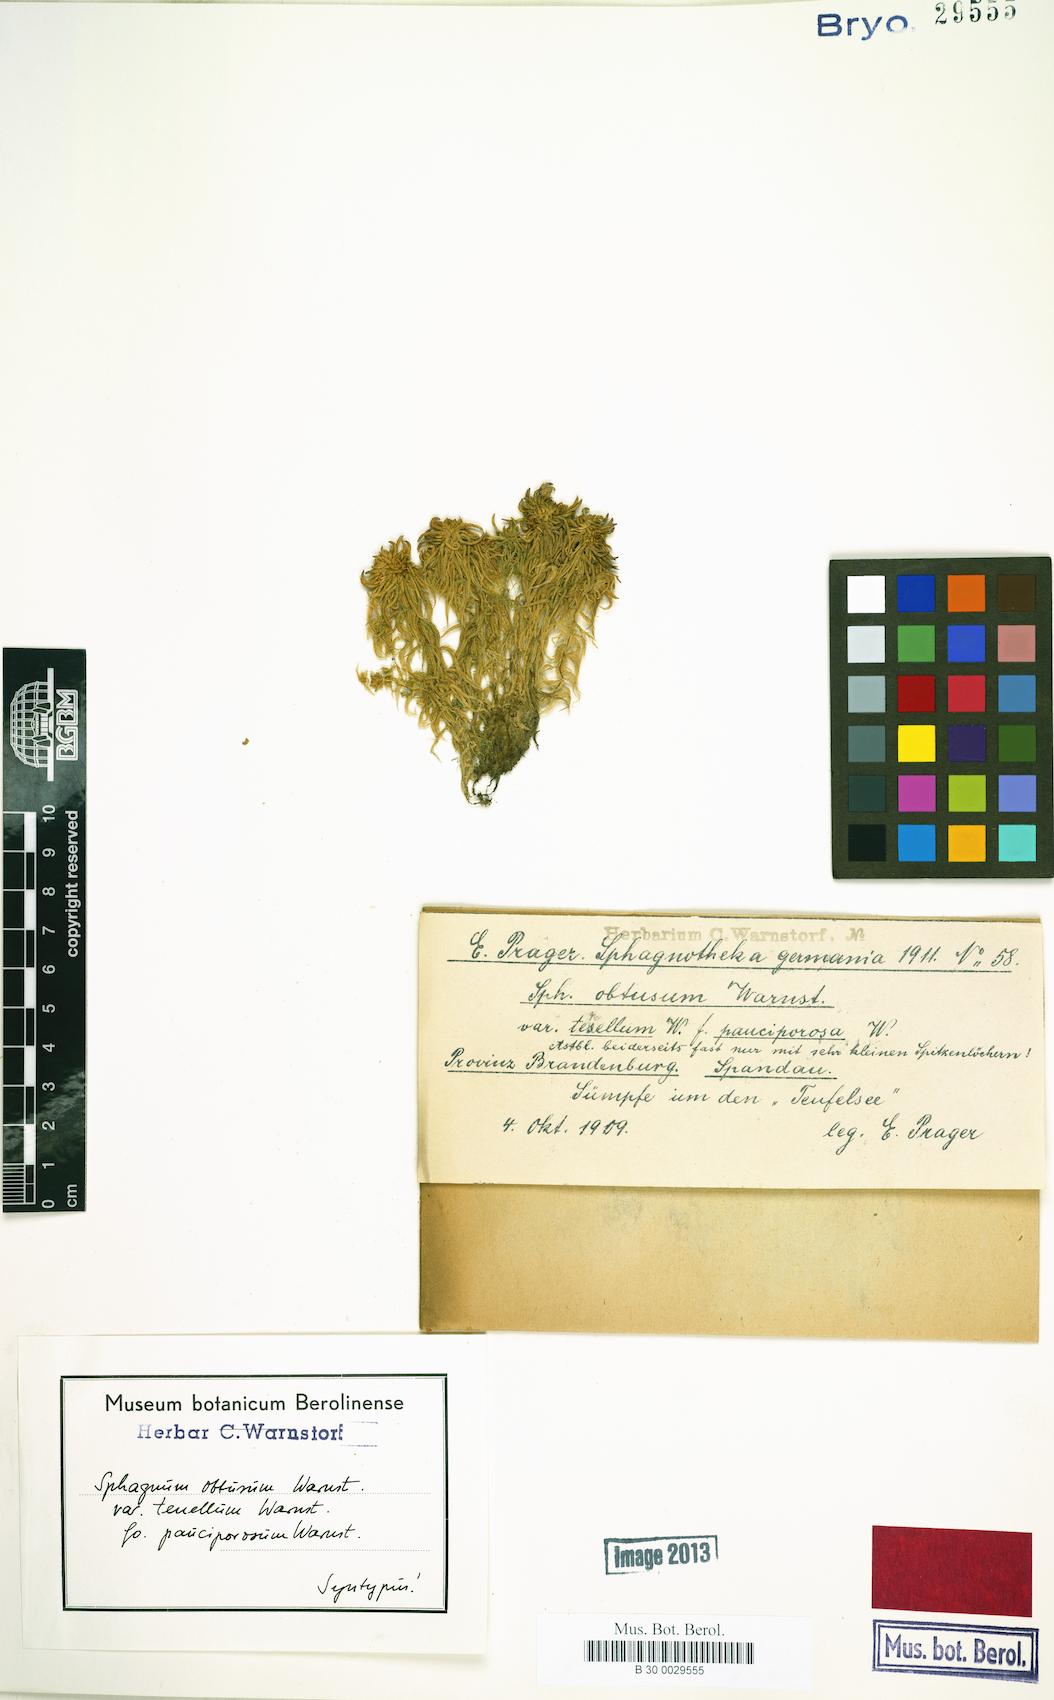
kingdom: Plantae
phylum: Bryophyta
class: Sphagnopsida
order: Sphagnales
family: Sphagnaceae
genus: Sphagnum
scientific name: Sphagnum obtusum
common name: Obtuse peat moss
